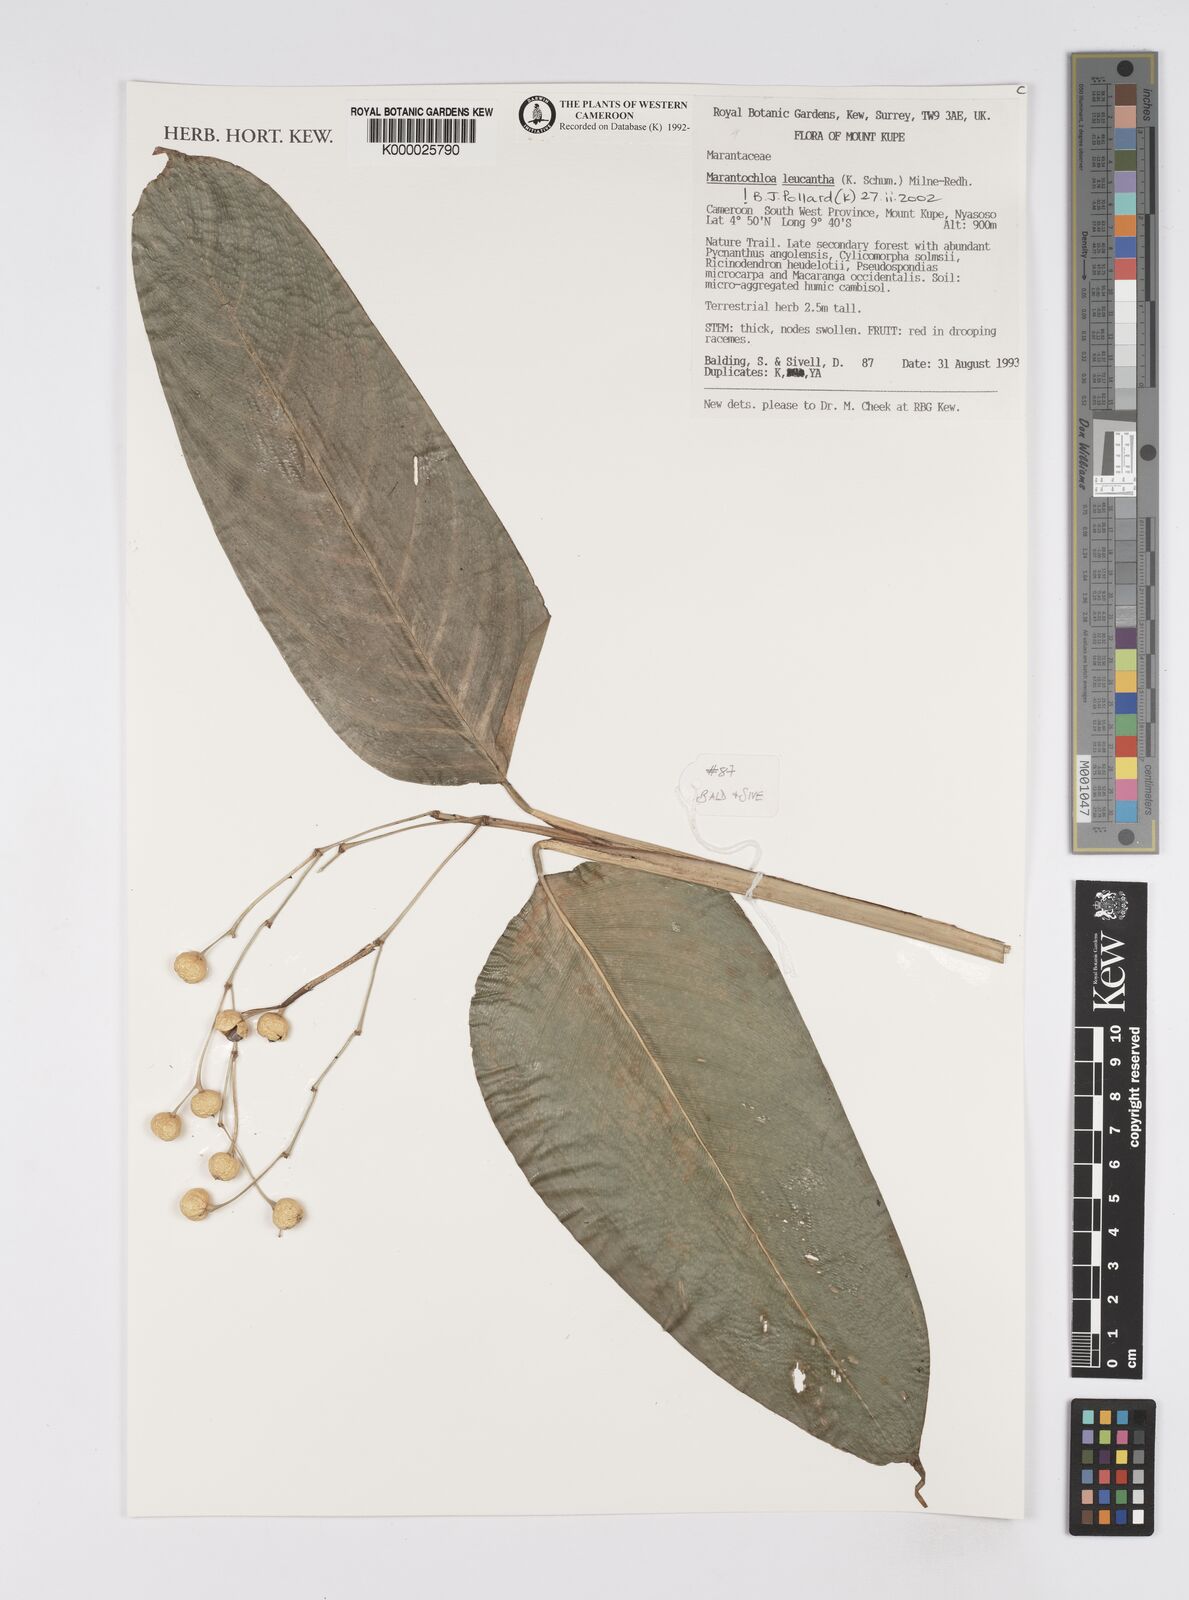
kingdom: Plantae
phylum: Tracheophyta
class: Liliopsida
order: Zingiberales
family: Marantaceae
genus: Marantochloa
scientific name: Marantochloa leucantha
